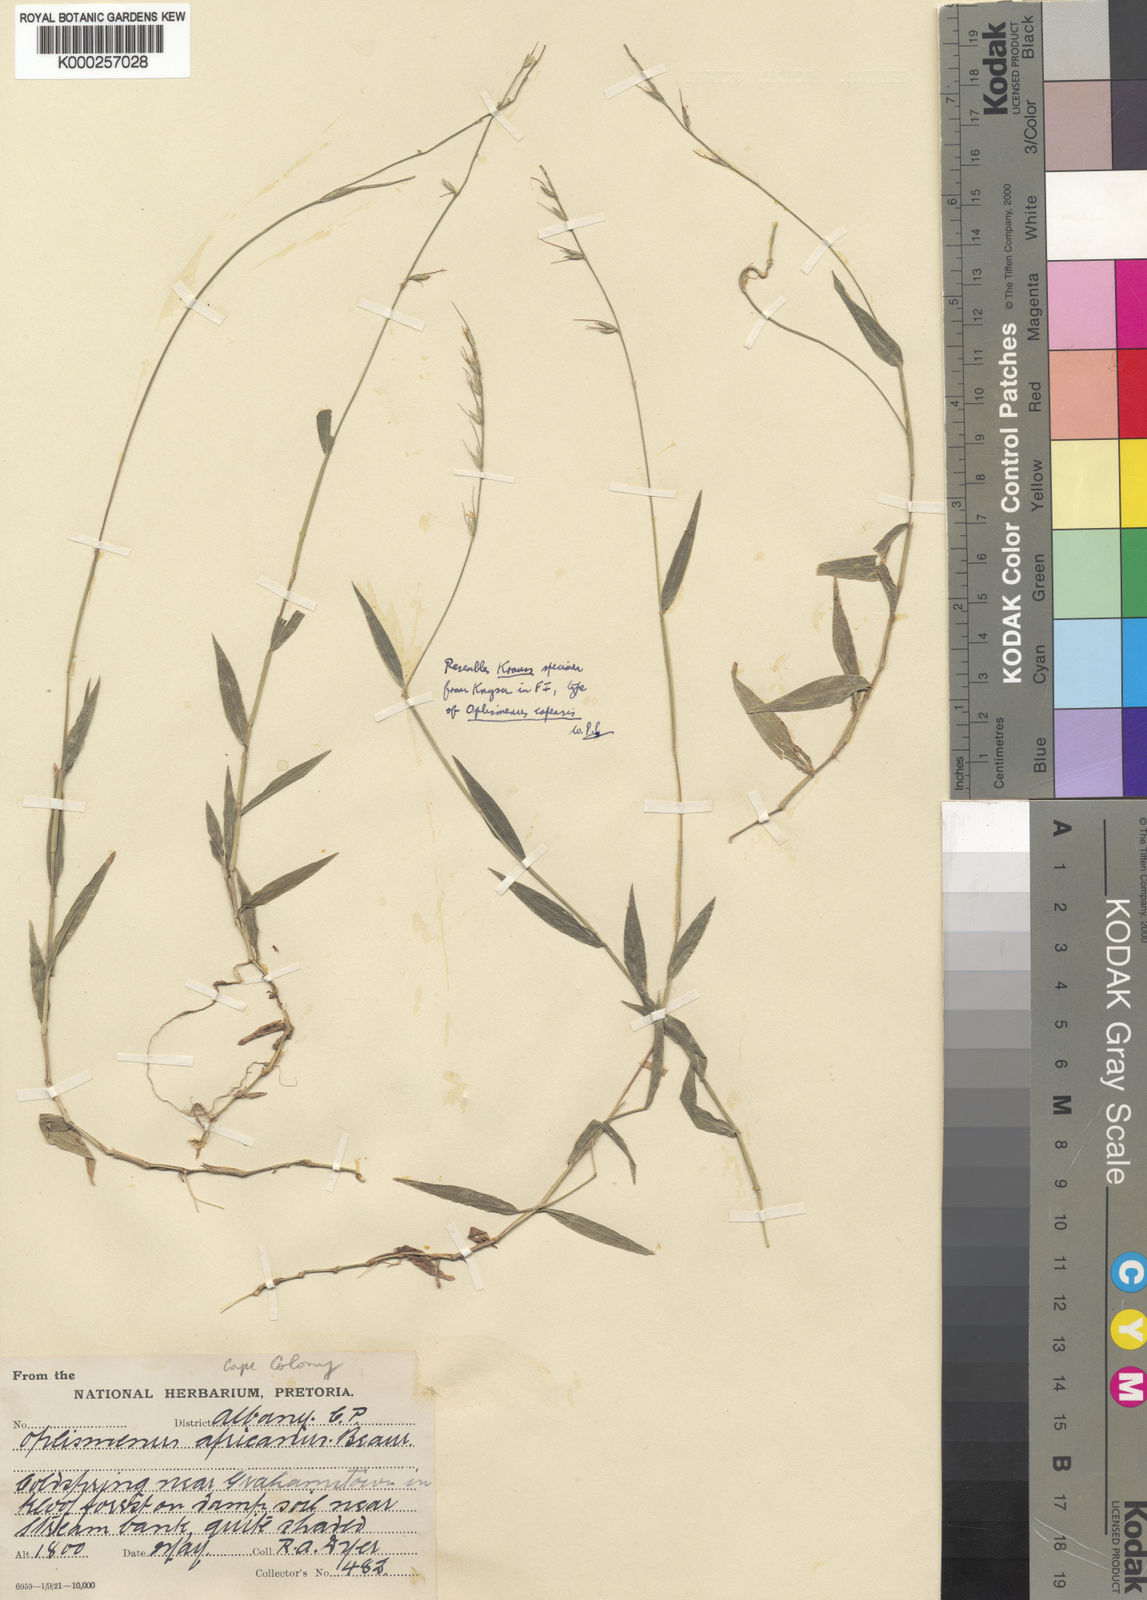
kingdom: Plantae
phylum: Tracheophyta
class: Liliopsida
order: Poales
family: Poaceae
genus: Oplismenus
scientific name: Oplismenus undulatifolius
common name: Wavyleaf basketgrass
